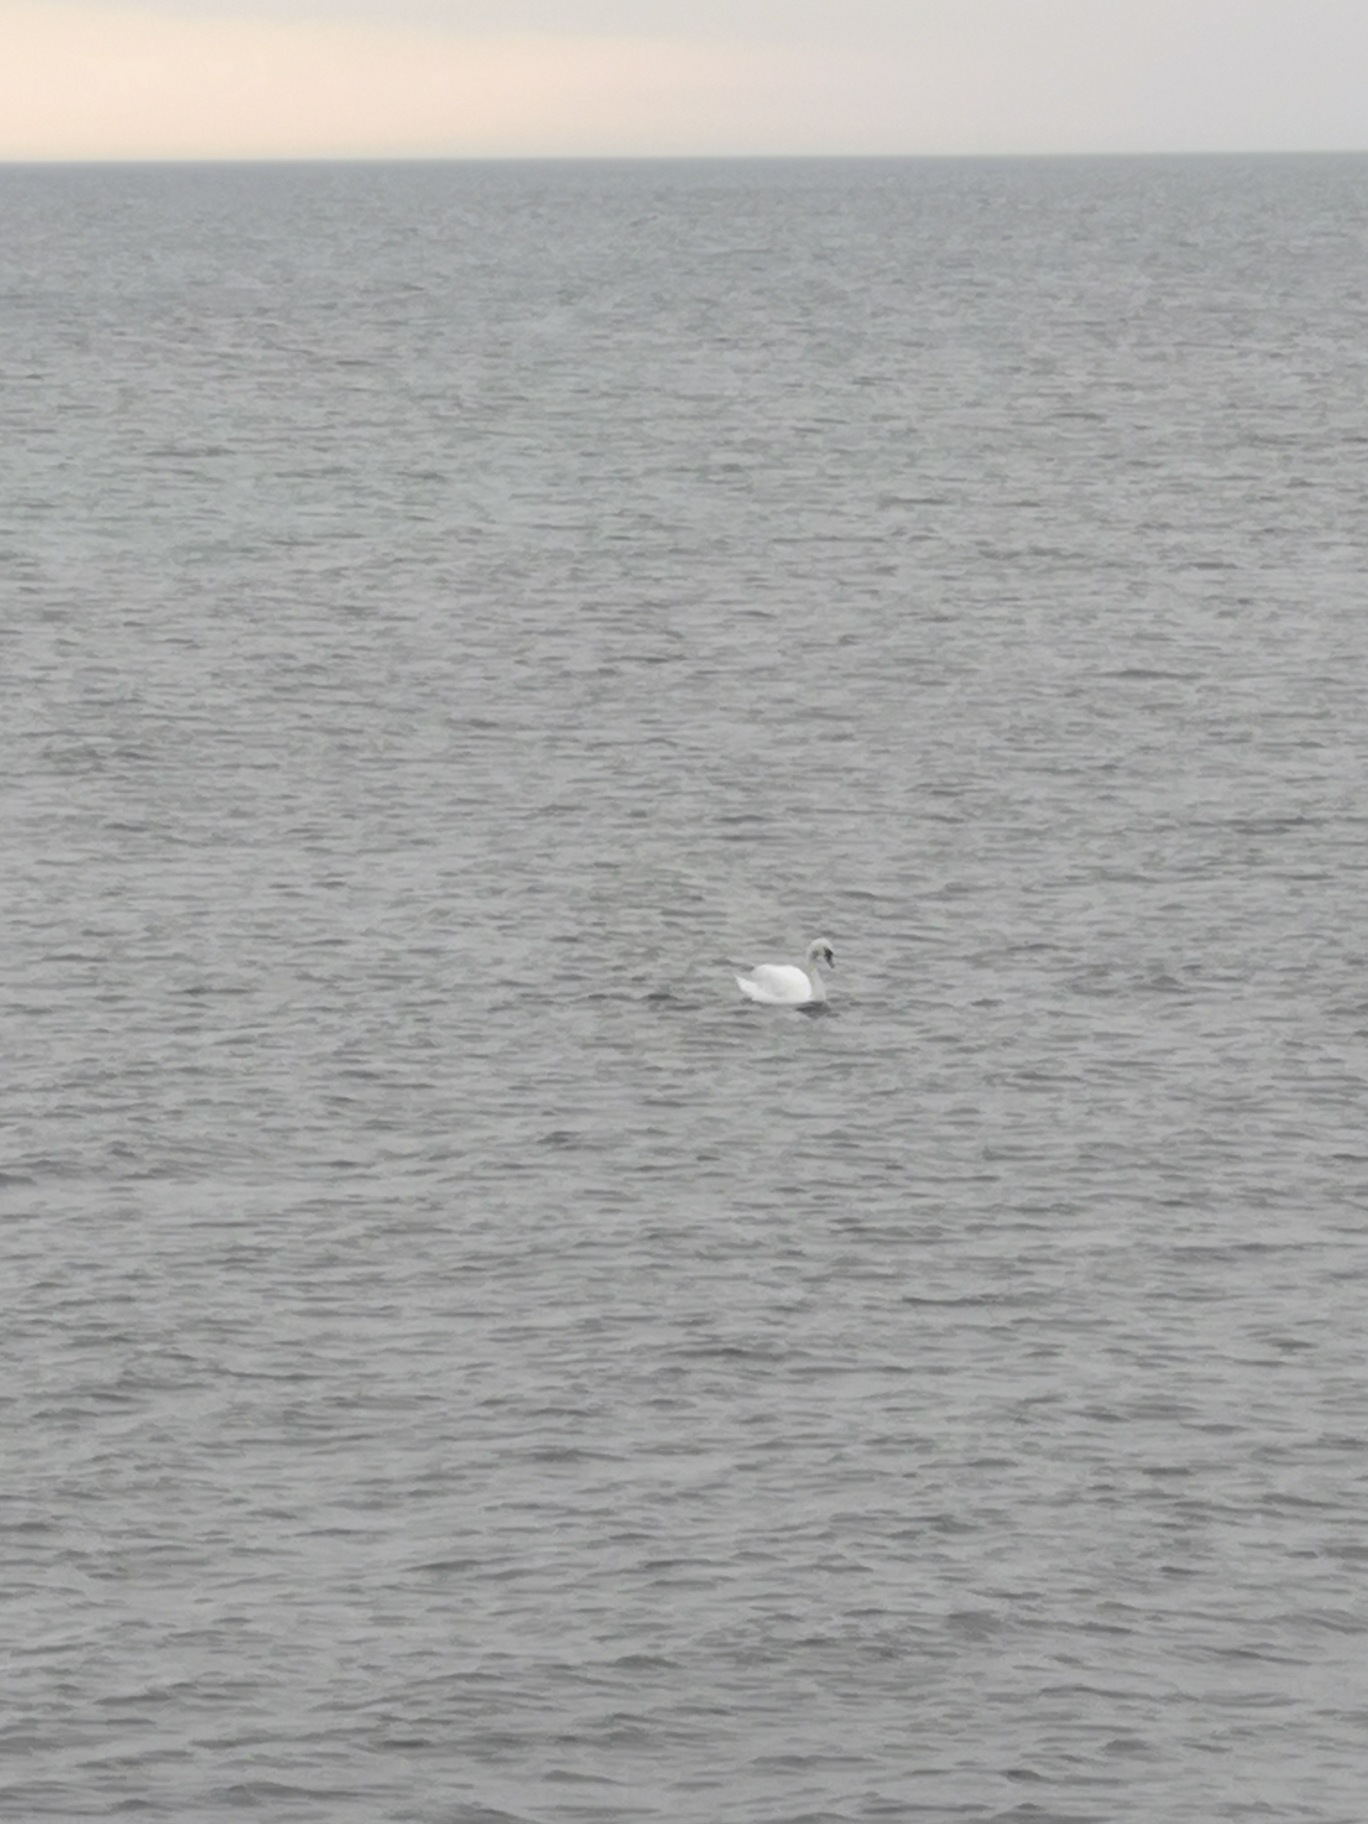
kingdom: Animalia
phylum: Chordata
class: Aves
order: Anseriformes
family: Anatidae
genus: Cygnus
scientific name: Cygnus olor
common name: Knopsvane
